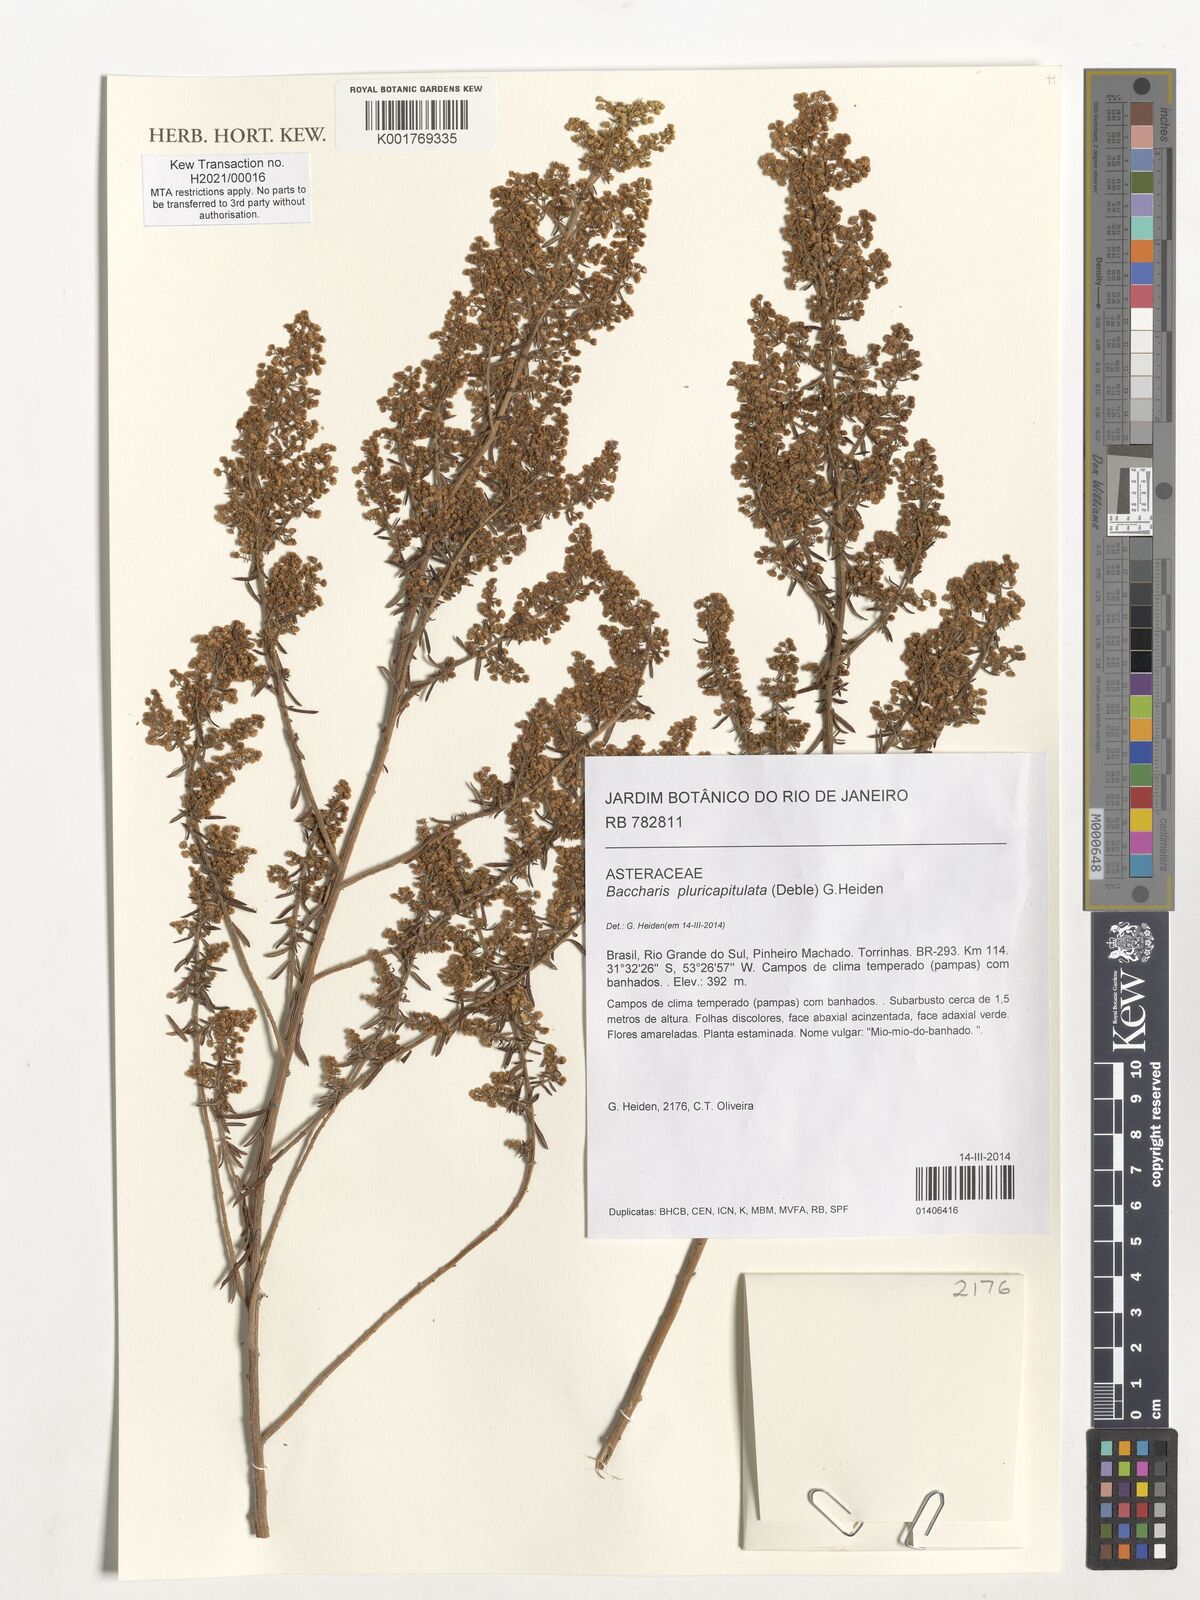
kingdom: Plantae
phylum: Tracheophyta
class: Magnoliopsida
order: Asterales
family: Asteraceae
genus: Baccharis
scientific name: Baccharis pluricapitulata
